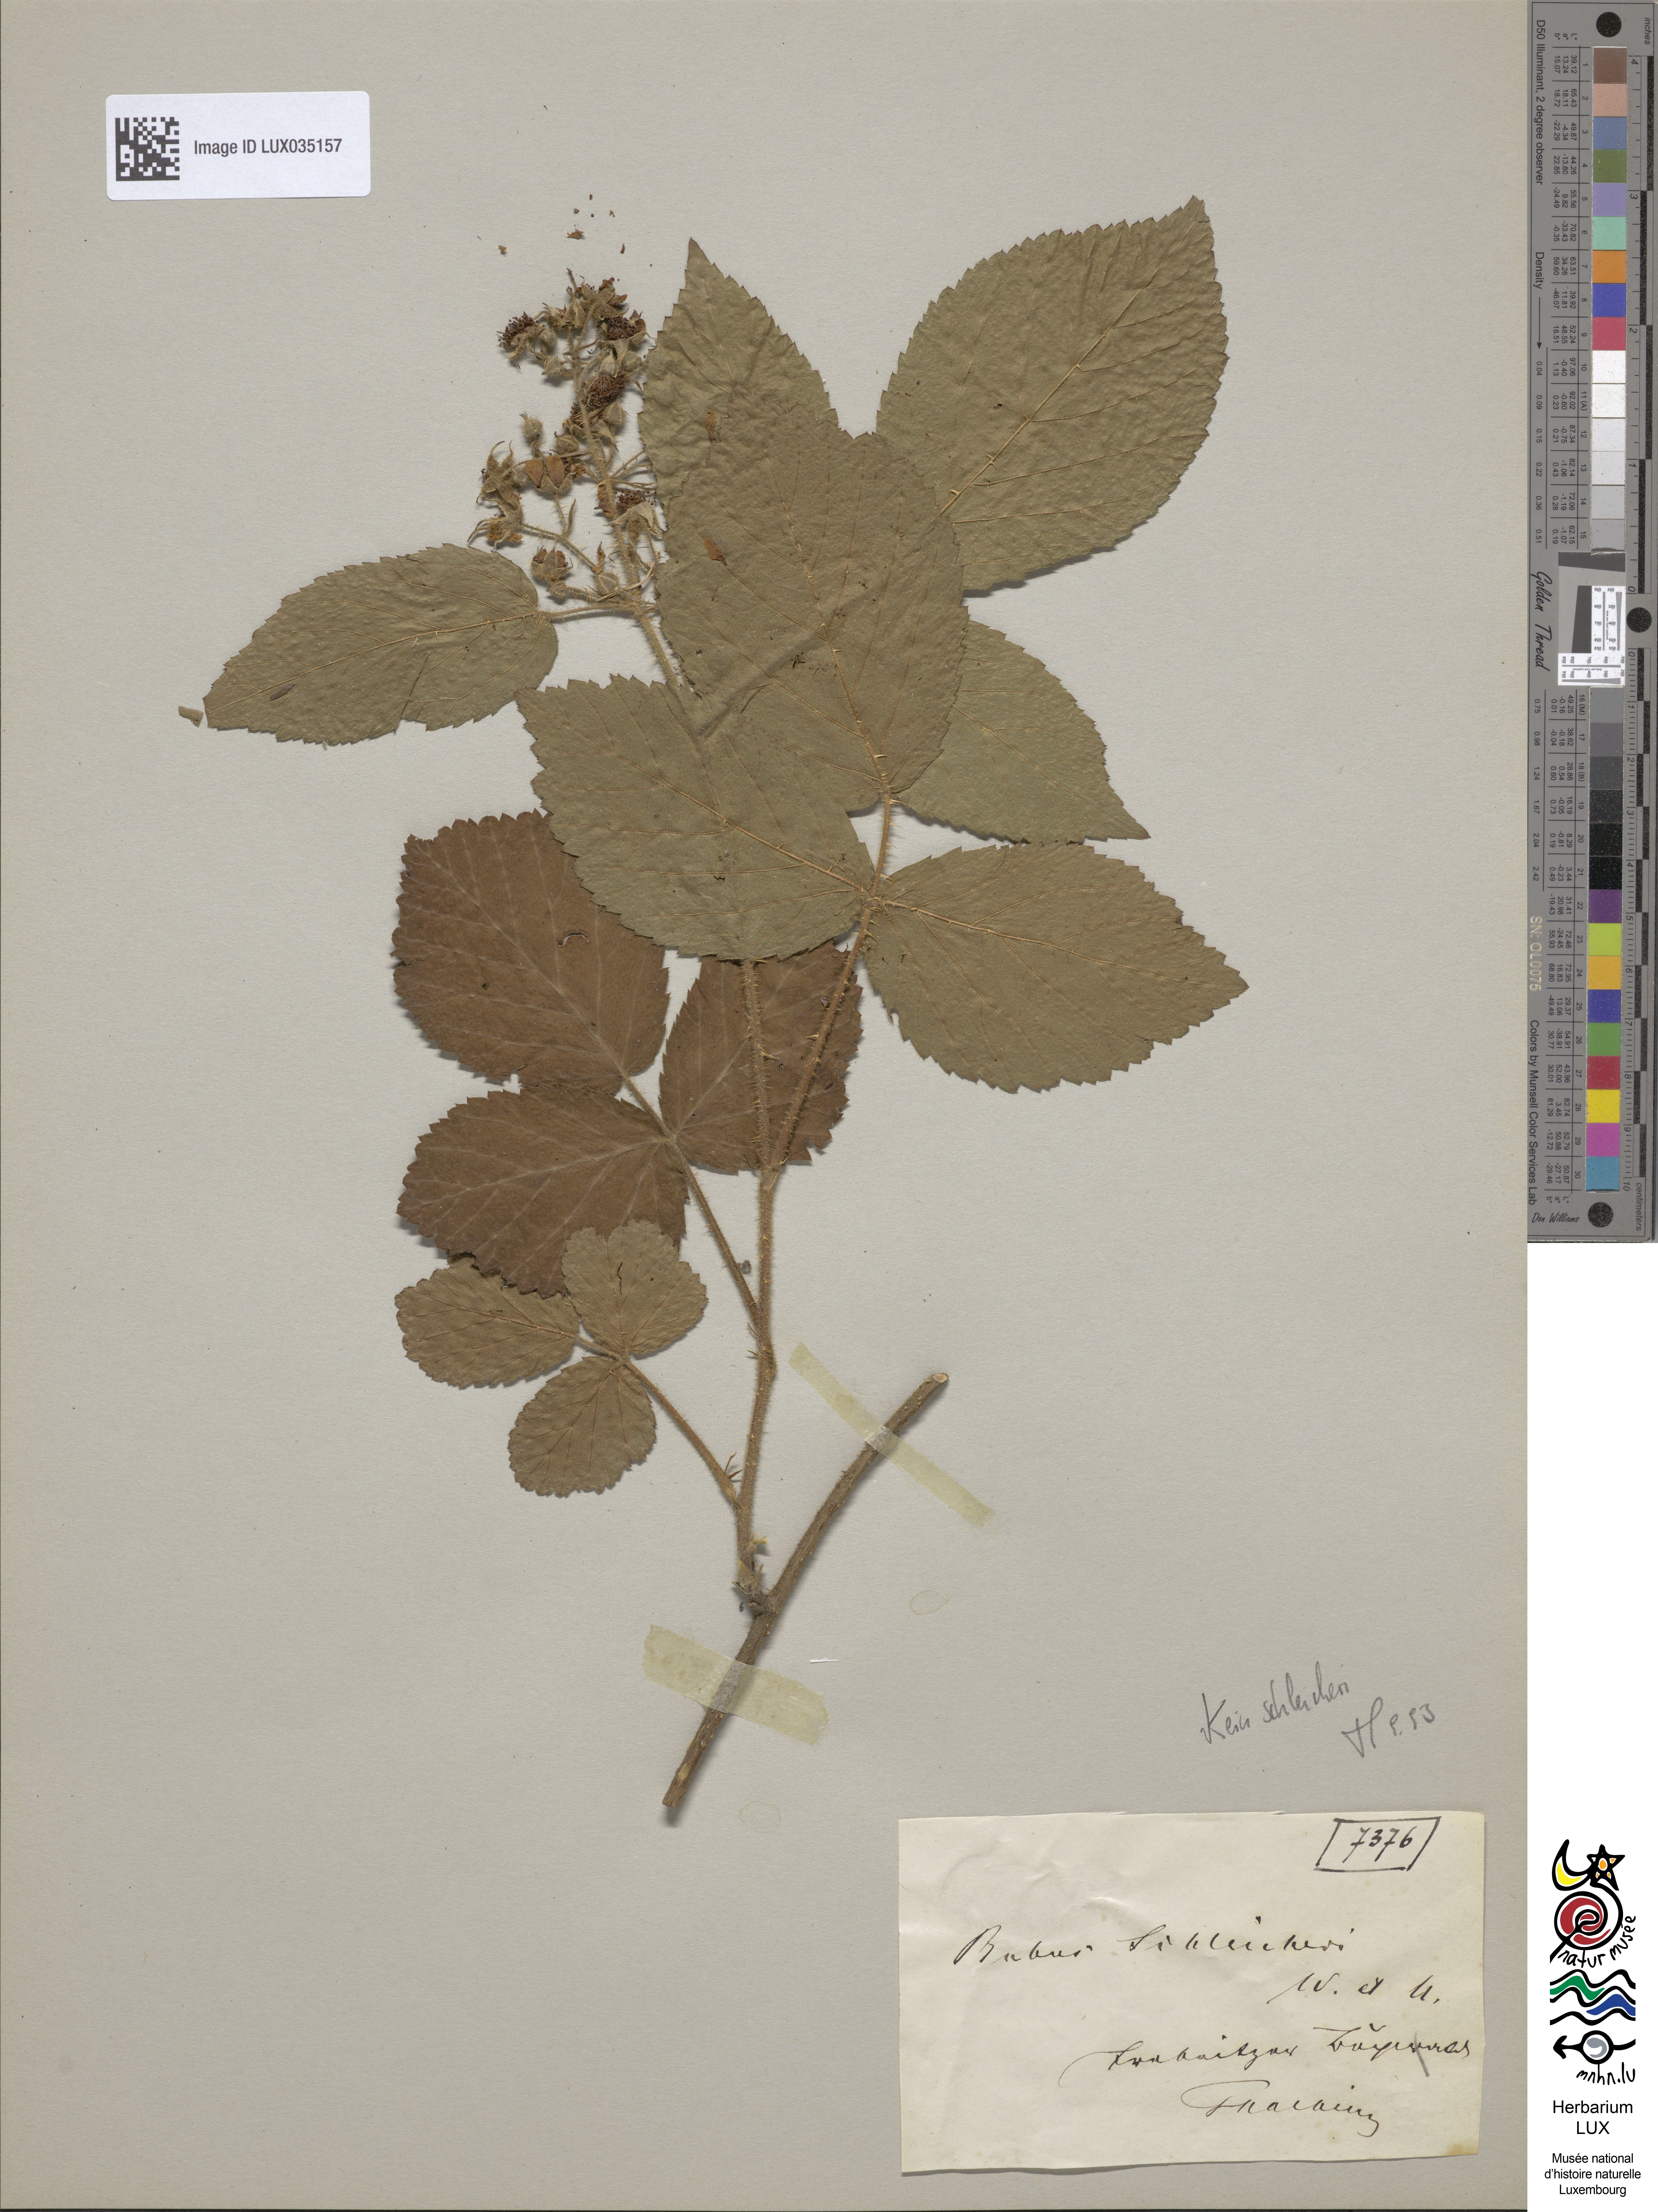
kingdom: Plantae
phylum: Tracheophyta
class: Magnoliopsida
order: Rosales
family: Rosaceae
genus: Rubus
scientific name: Rubus schleicheri
